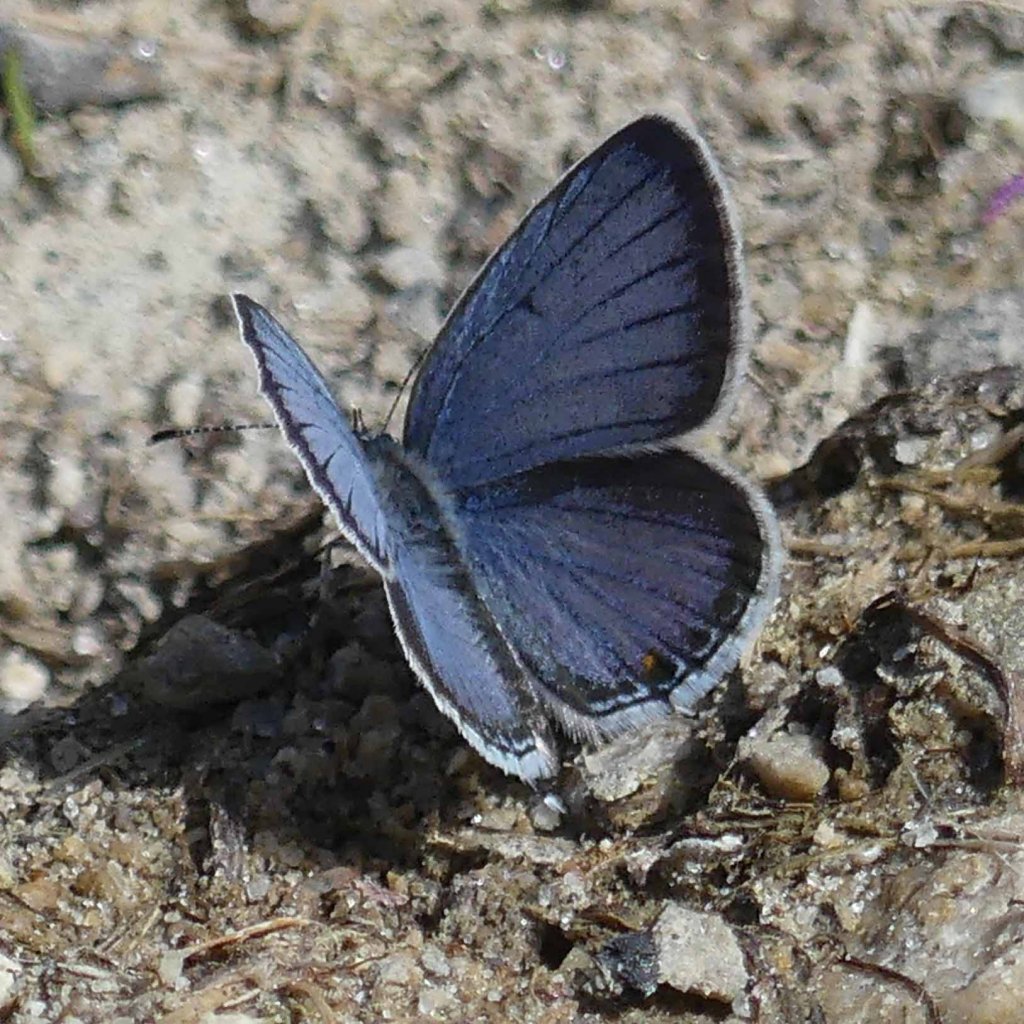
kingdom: Animalia
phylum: Arthropoda
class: Insecta
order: Lepidoptera
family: Lycaenidae
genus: Elkalyce
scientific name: Elkalyce comyntas
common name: Eastern Tailed-Blue
